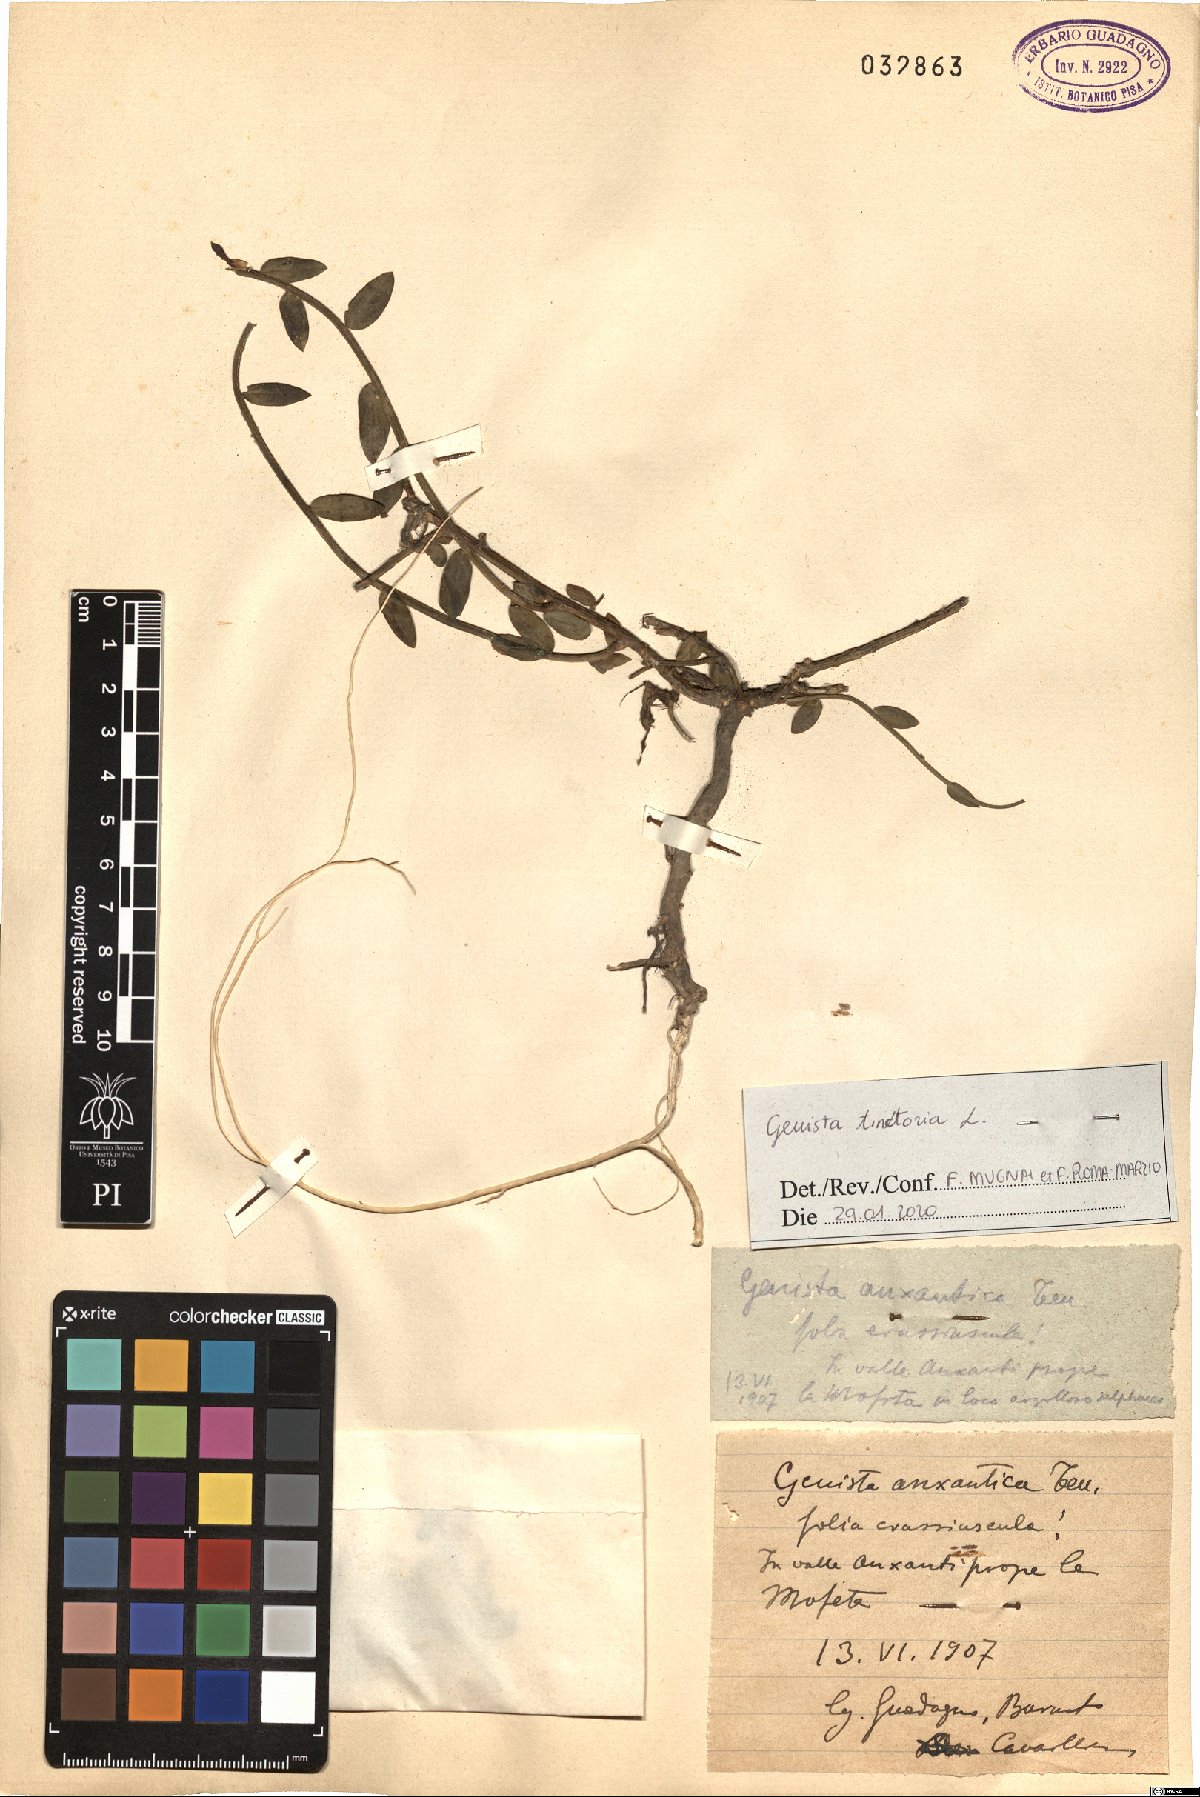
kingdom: Plantae
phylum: Tracheophyta
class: Magnoliopsida
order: Fabales
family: Fabaceae
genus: Genista
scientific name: Genista tinctoria
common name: Dyer's greenweed
